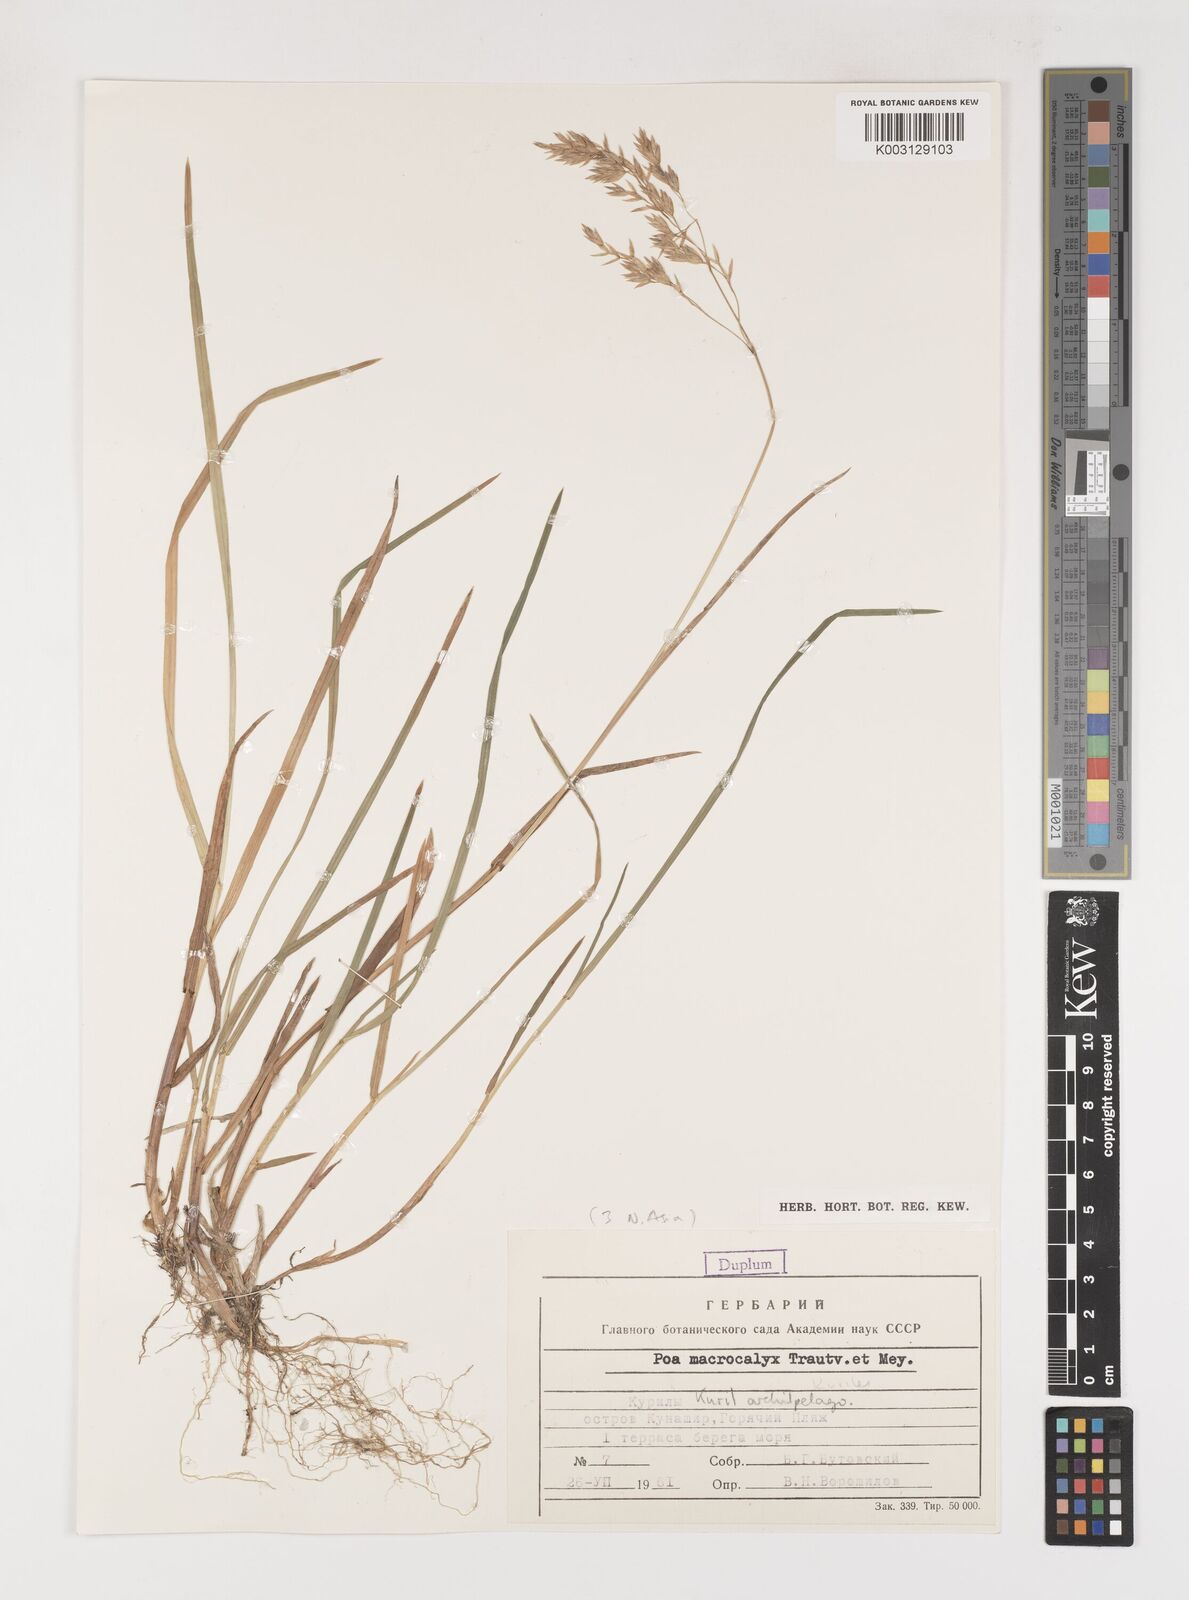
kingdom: Plantae
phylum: Tracheophyta
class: Liliopsida
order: Poales
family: Poaceae
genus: Poa
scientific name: Poa macrocalyx
